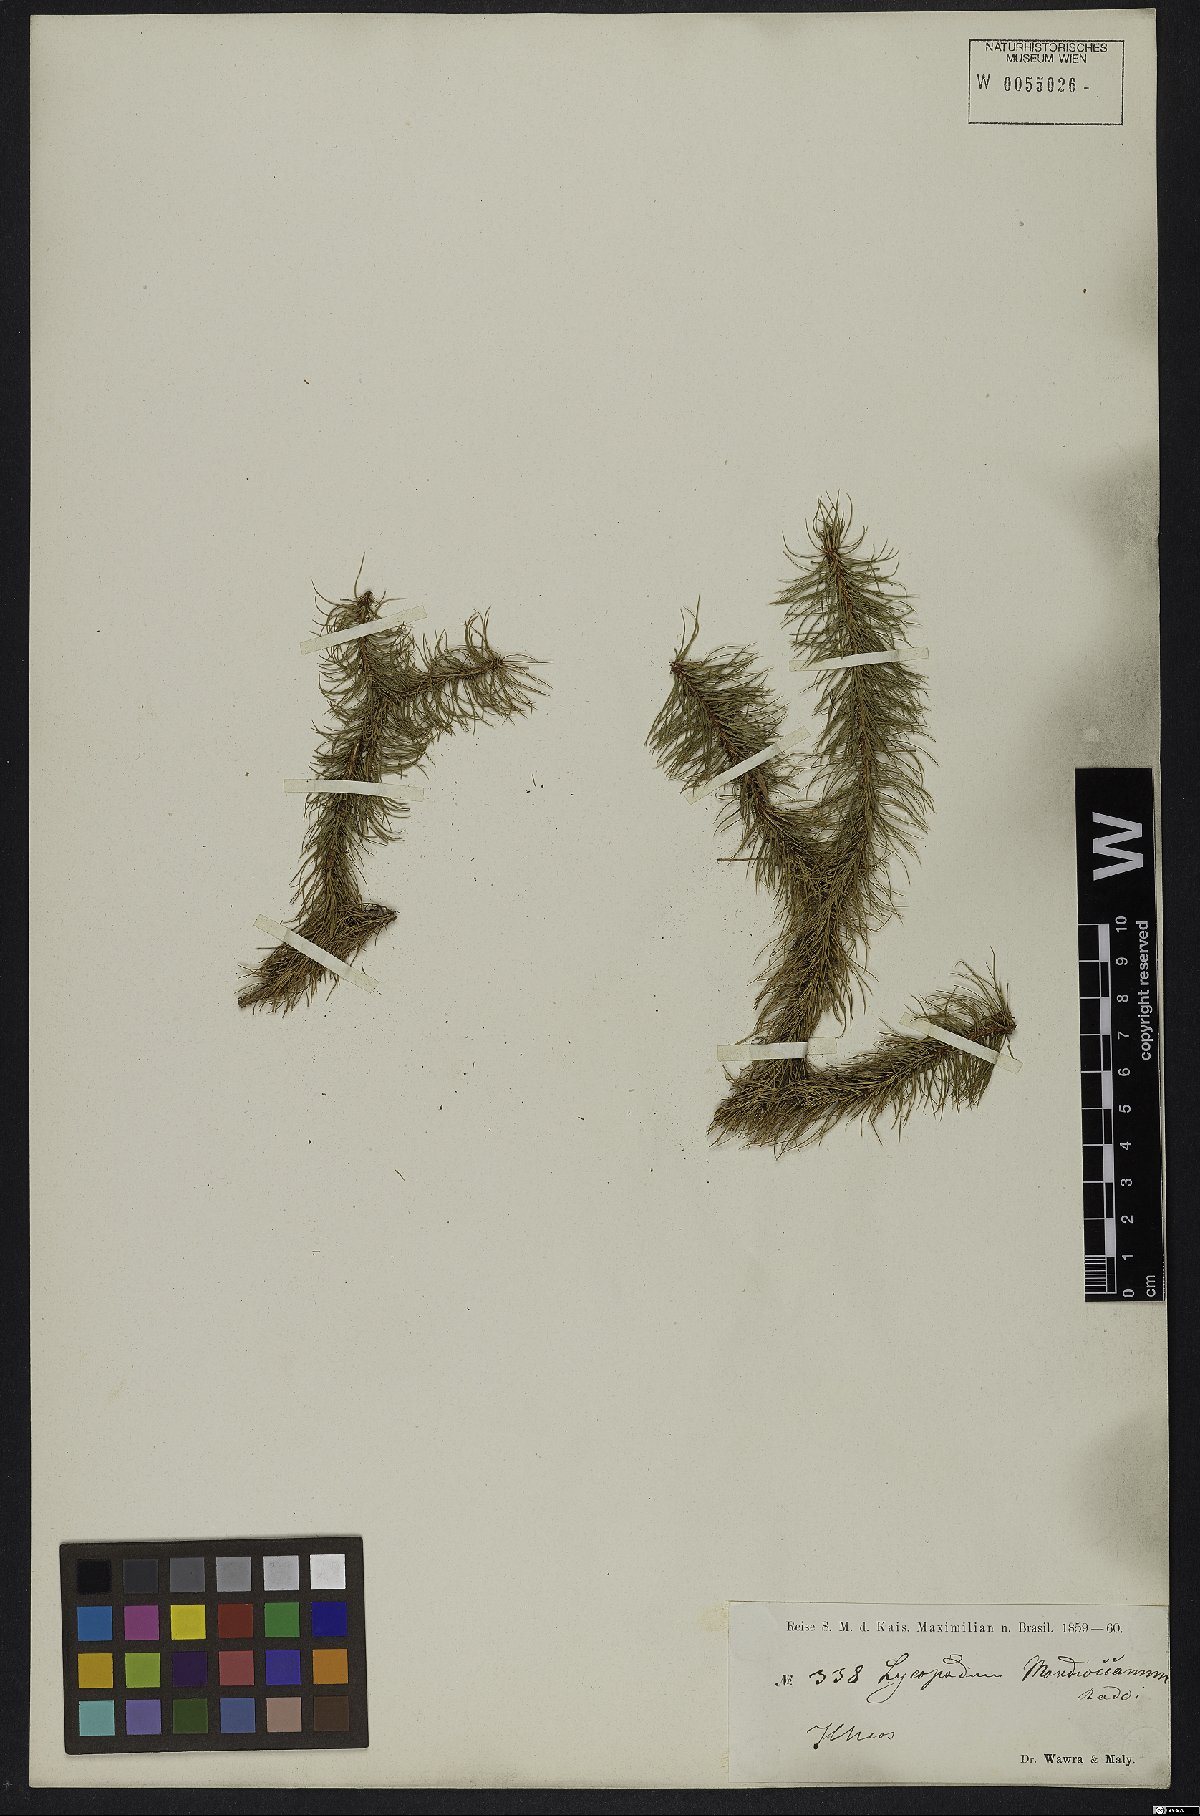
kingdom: Plantae
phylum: Tracheophyta
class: Lycopodiopsida
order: Lycopodiales
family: Lycopodiaceae
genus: Phlegmariurus
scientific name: Phlegmariurus mandiocanus
